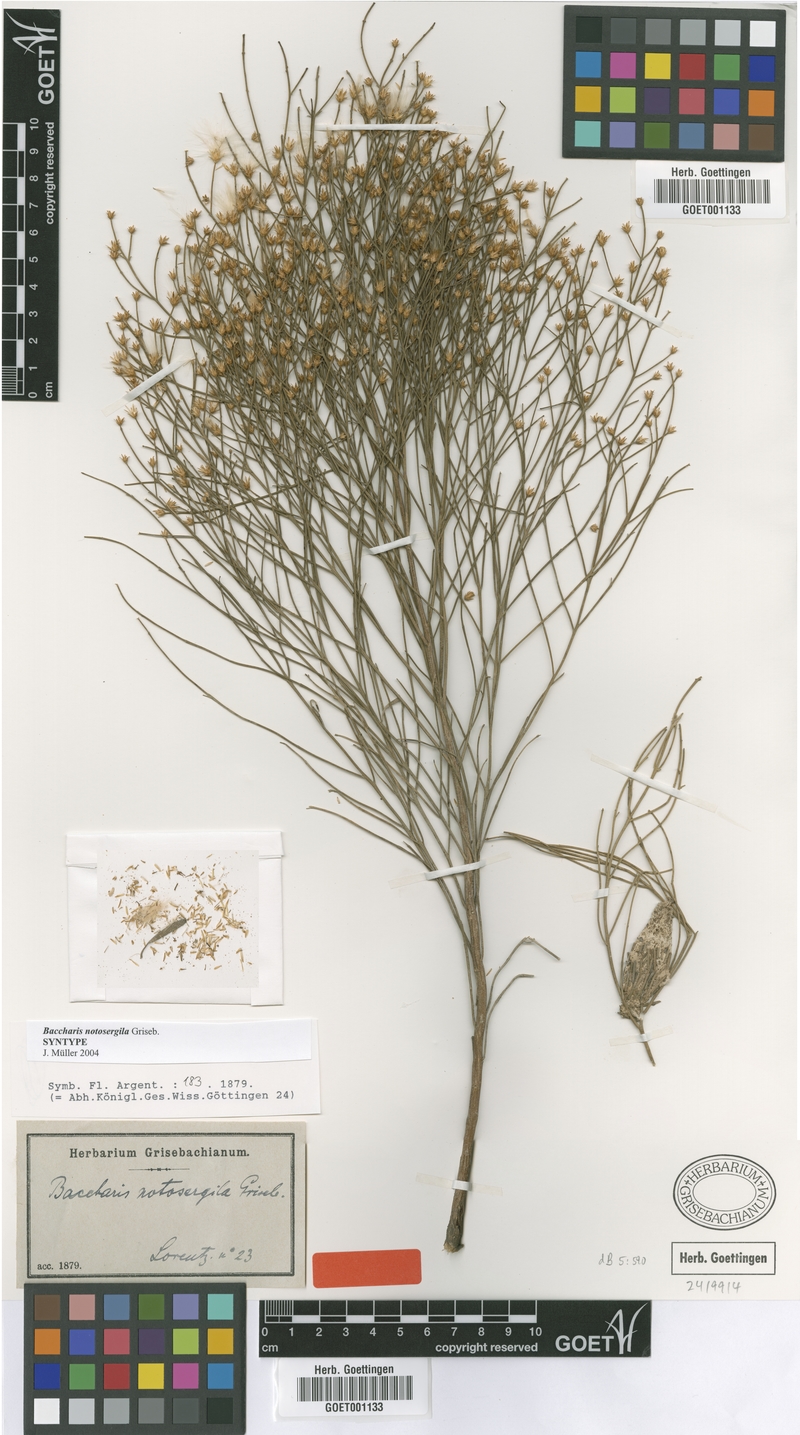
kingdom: Plantae
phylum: Tracheophyta
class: Magnoliopsida
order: Asterales
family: Asteraceae
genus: Baccharis
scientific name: Baccharis notosergila
